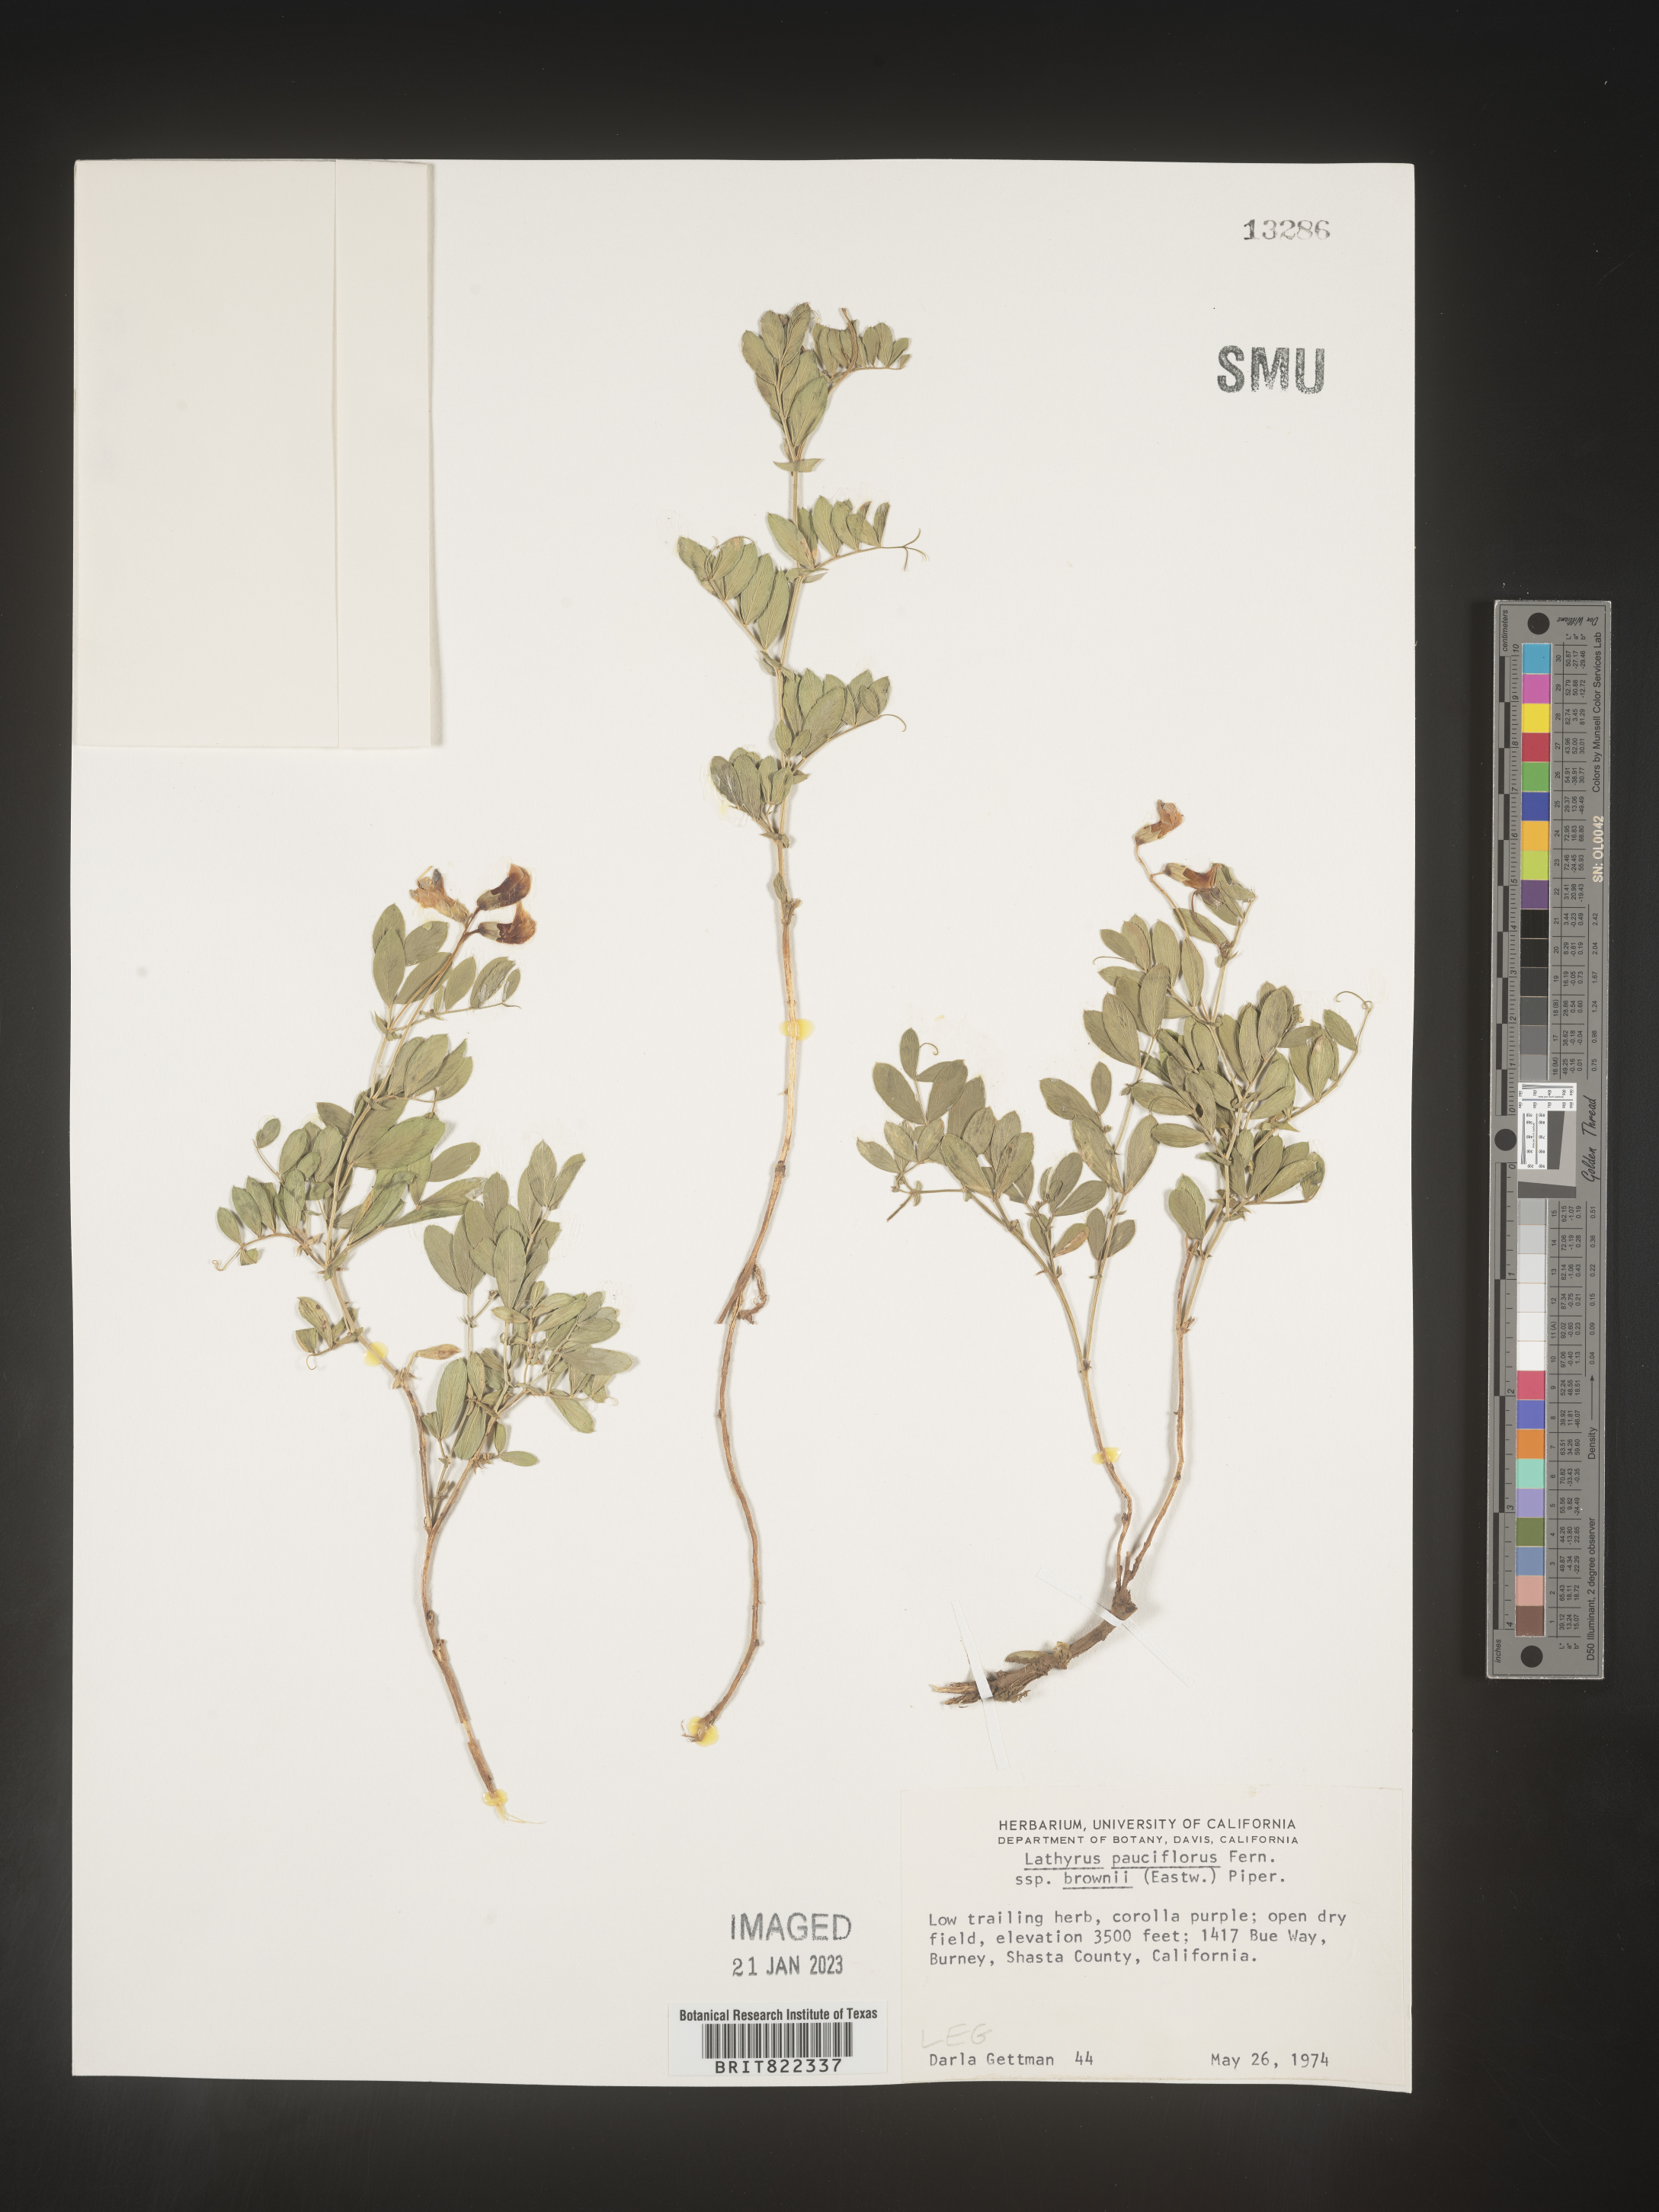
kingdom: Plantae
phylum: Tracheophyta
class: Magnoliopsida
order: Fabales
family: Fabaceae
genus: Lathyrus
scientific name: Lathyrus pauciflorus
